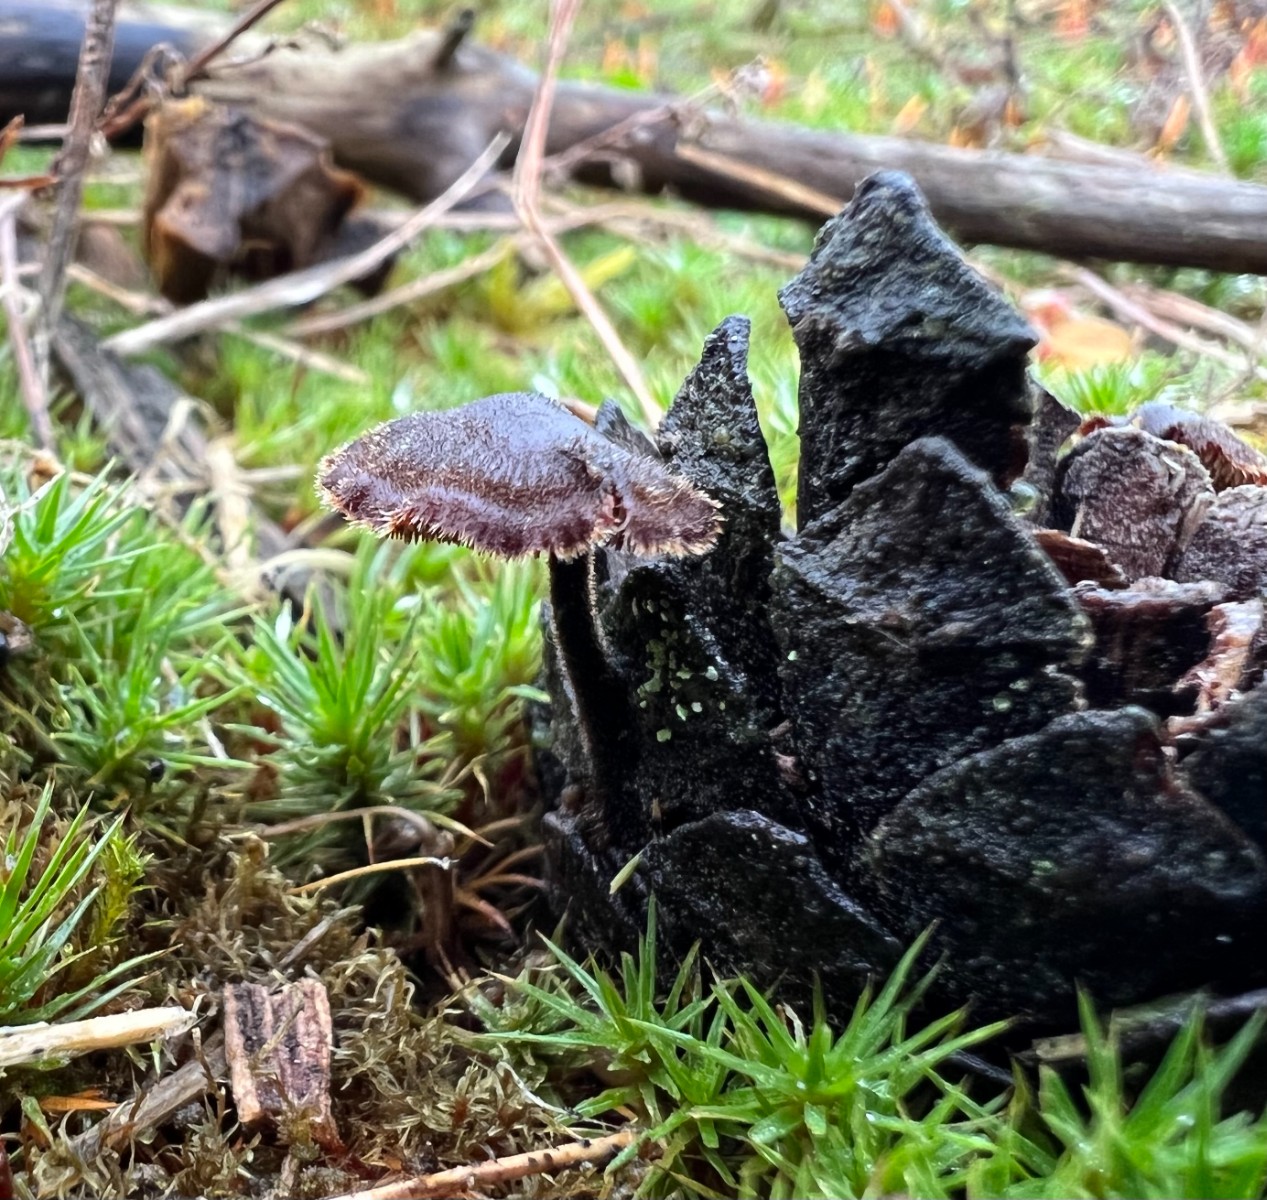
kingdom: Fungi
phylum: Basidiomycota
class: Agaricomycetes
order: Russulales
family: Auriscalpiaceae
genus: Auriscalpium
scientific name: Auriscalpium vulgare
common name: koglepigsvamp
